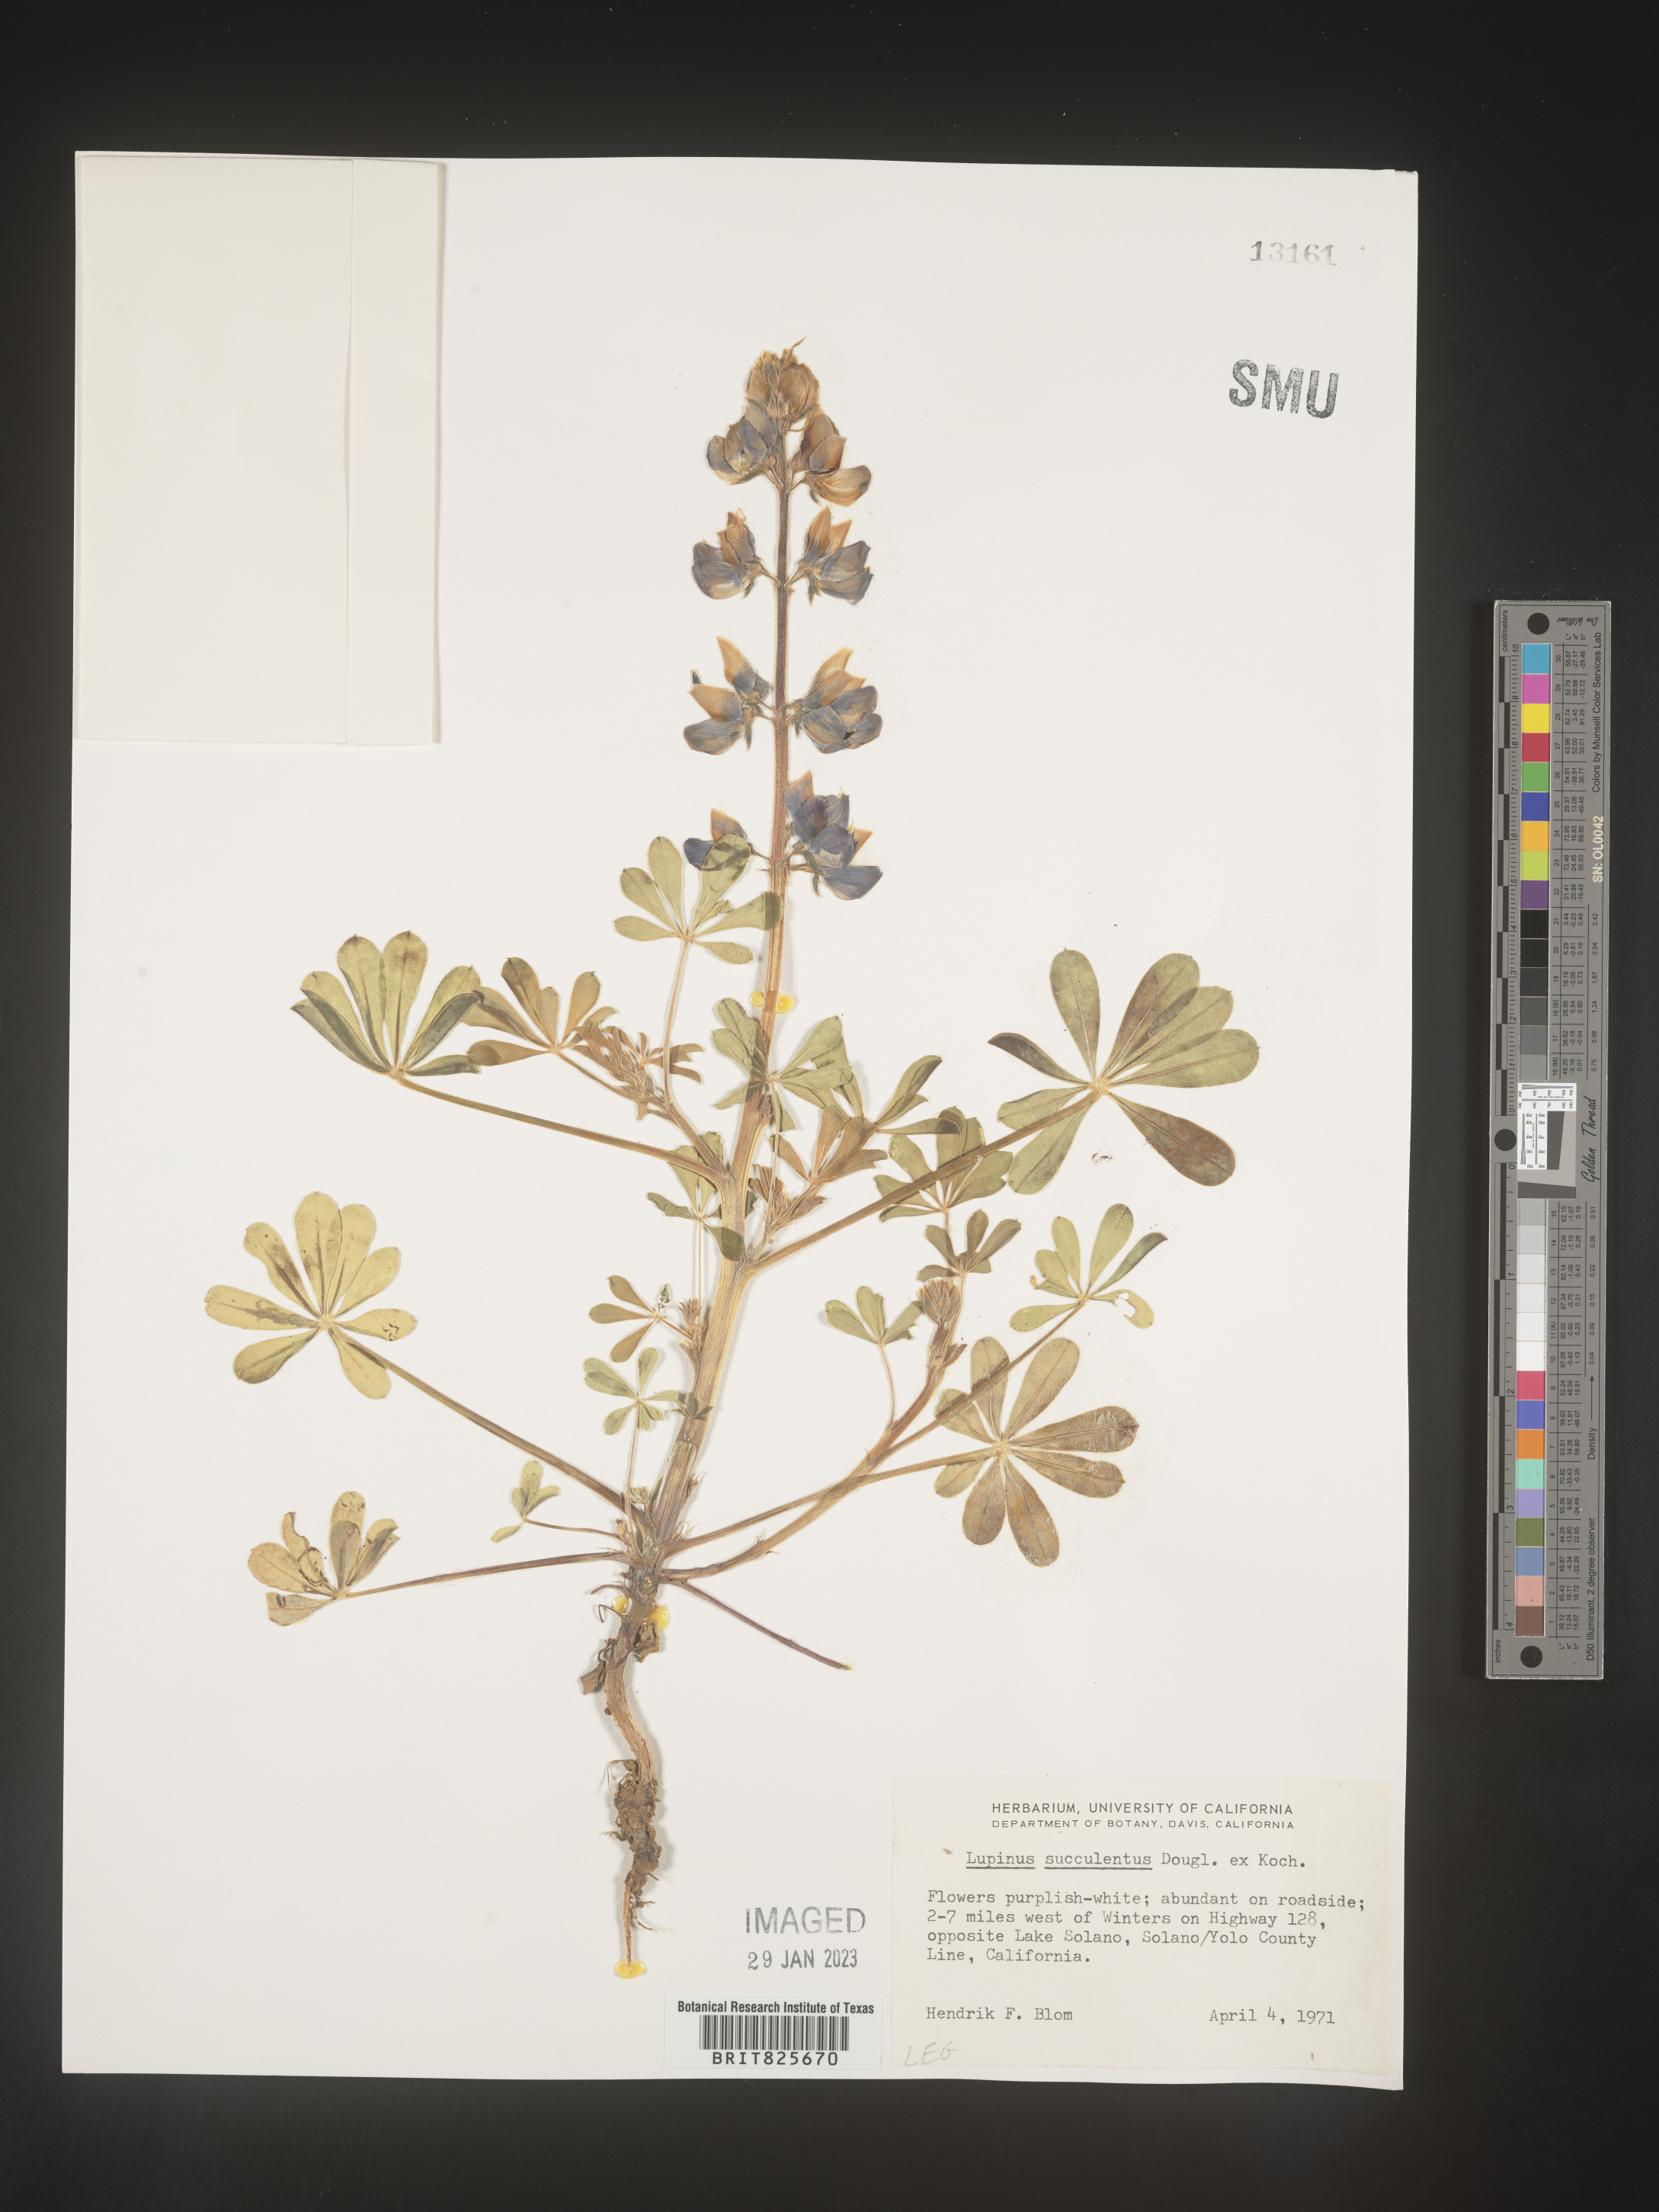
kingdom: Plantae
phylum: Tracheophyta
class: Magnoliopsida
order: Fabales
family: Fabaceae
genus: Lupinus
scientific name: Lupinus
